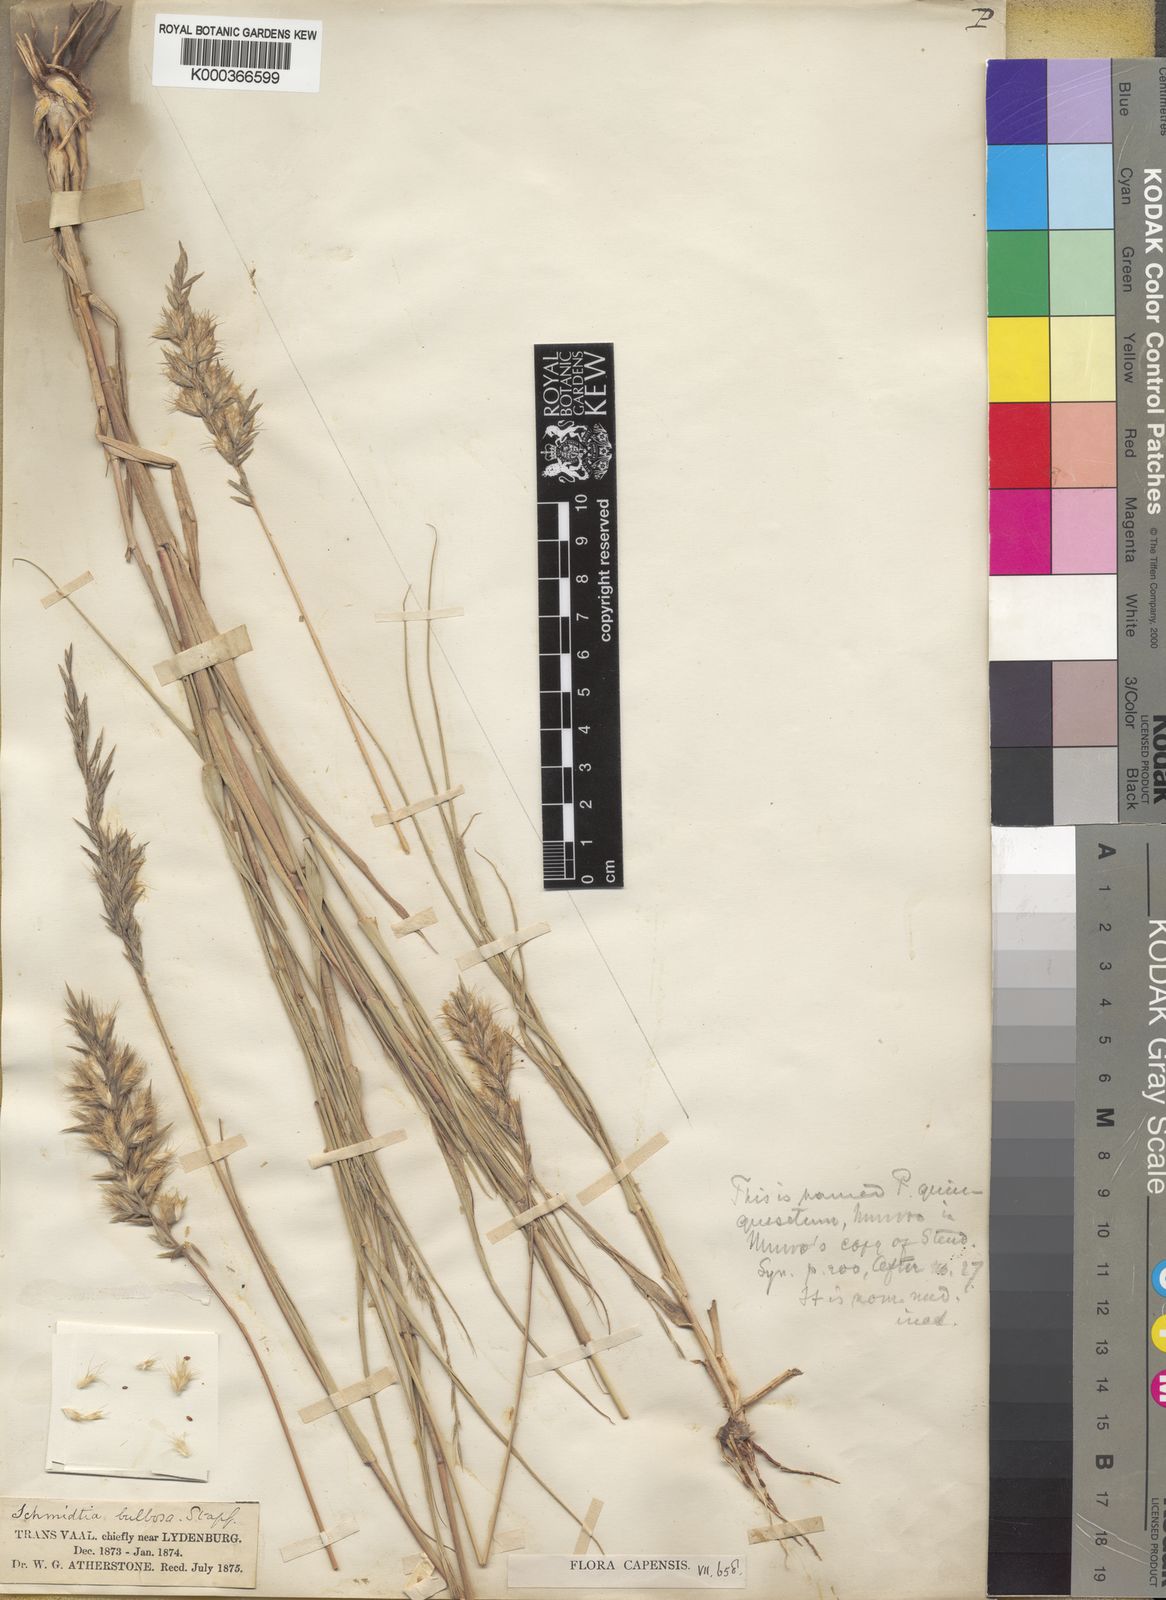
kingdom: Plantae
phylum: Tracheophyta
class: Liliopsida
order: Poales
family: Poaceae
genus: Schmidtia
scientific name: Schmidtia pappophoroides
